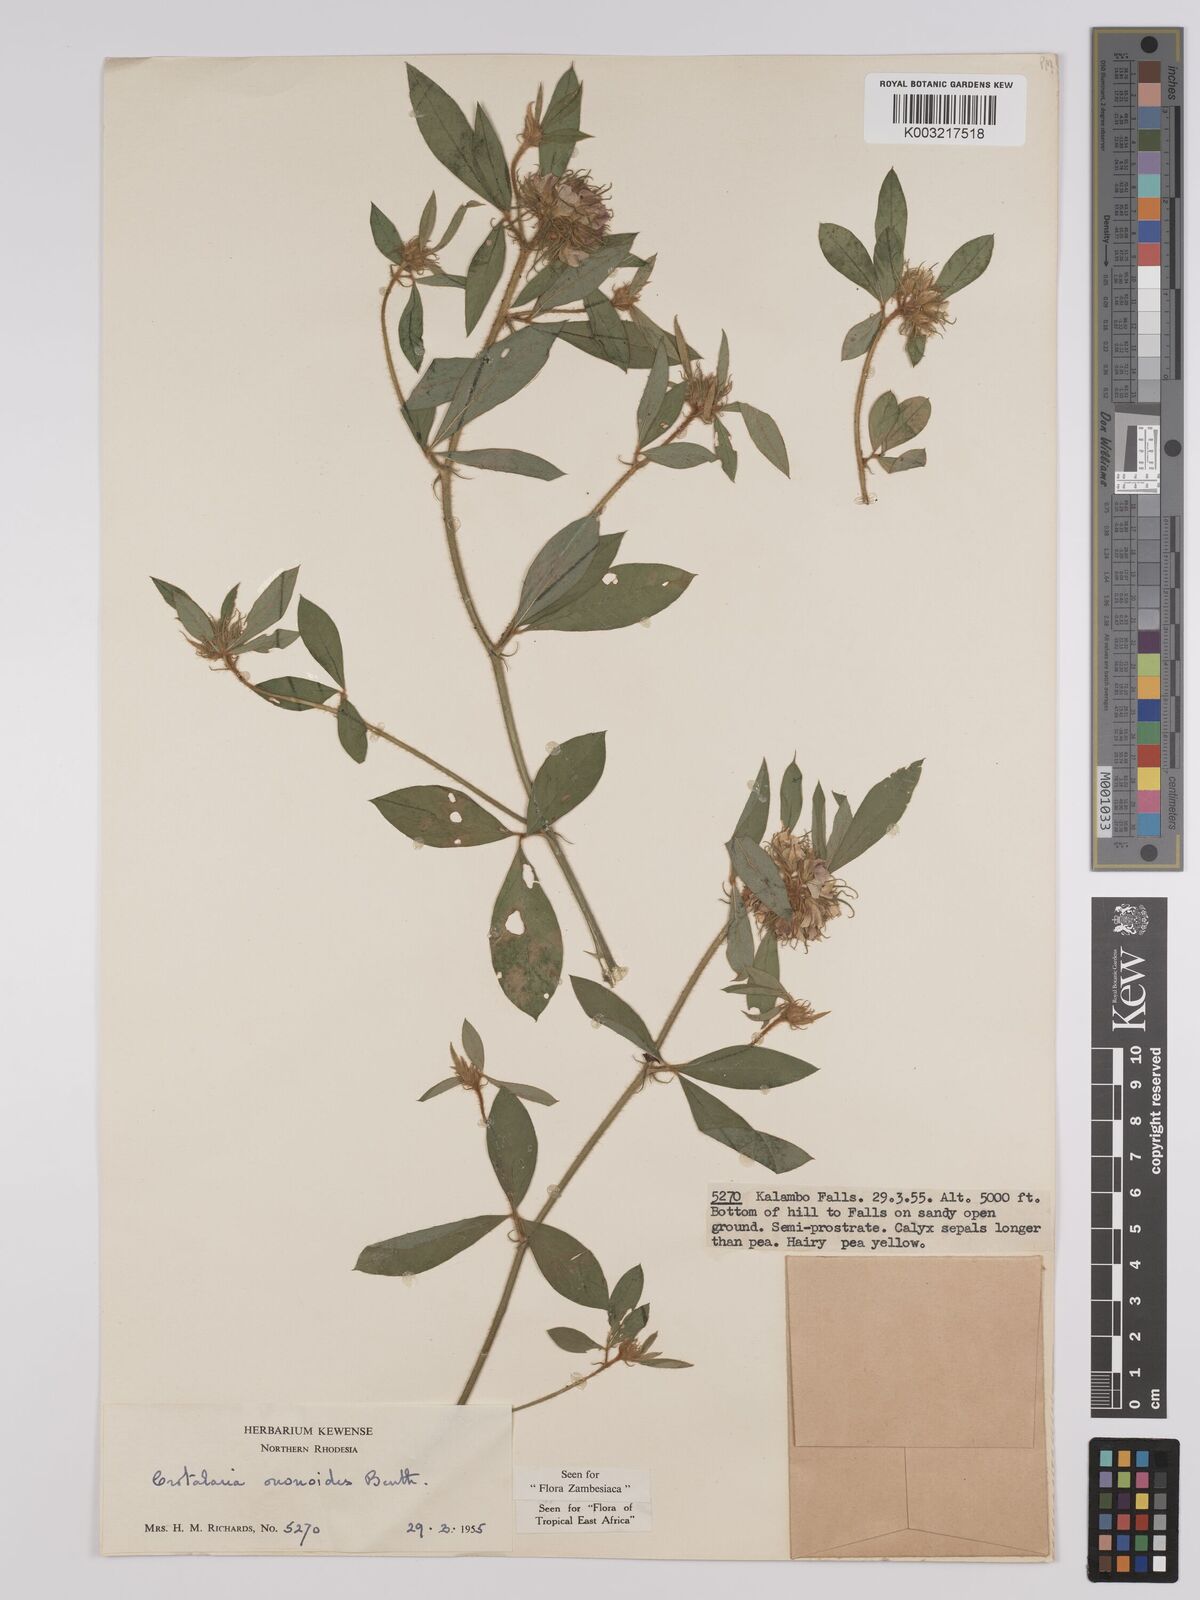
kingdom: Plantae
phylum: Tracheophyta
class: Magnoliopsida
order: Fabales
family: Fabaceae
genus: Crotalaria
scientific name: Crotalaria ononoides
